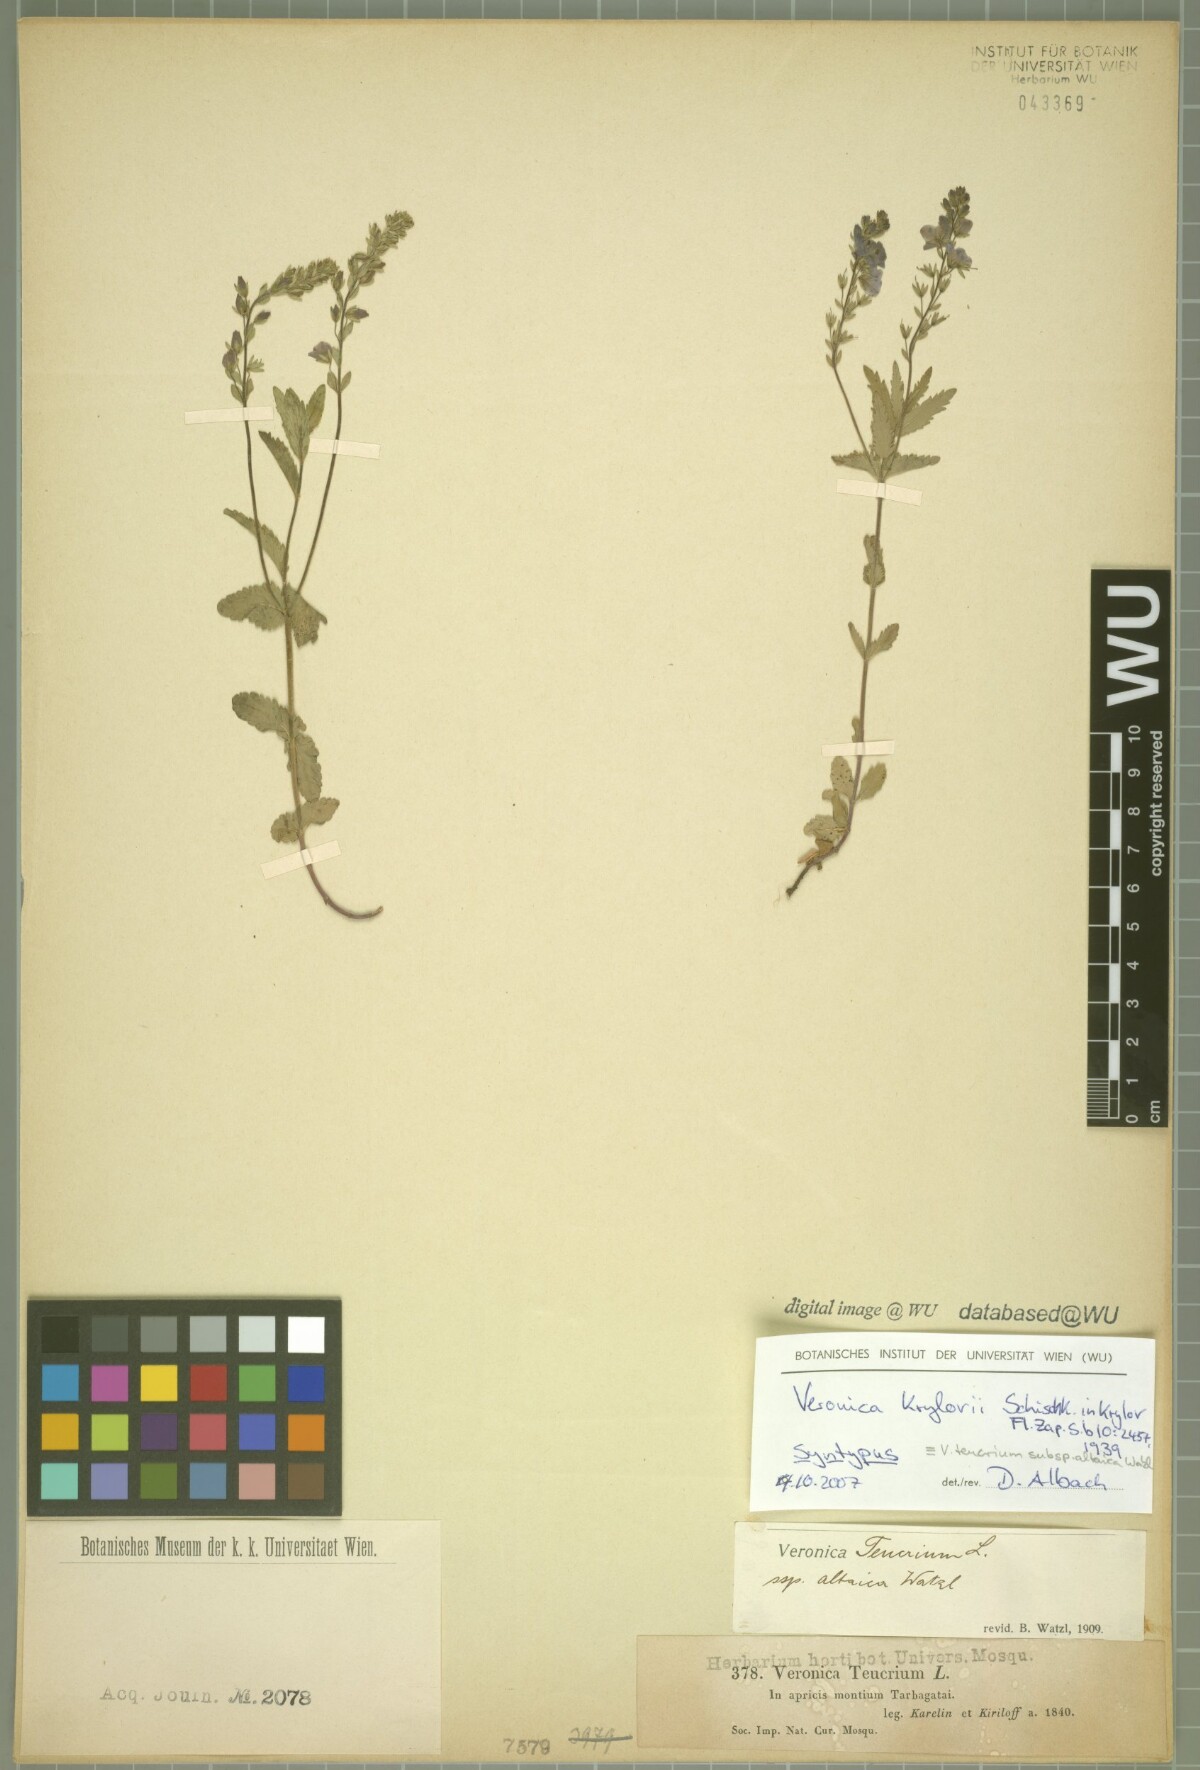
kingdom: Plantae
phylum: Tracheophyta
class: Magnoliopsida
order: Lamiales
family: Plantaginaceae
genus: Veronica
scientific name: Veronica krylovii
